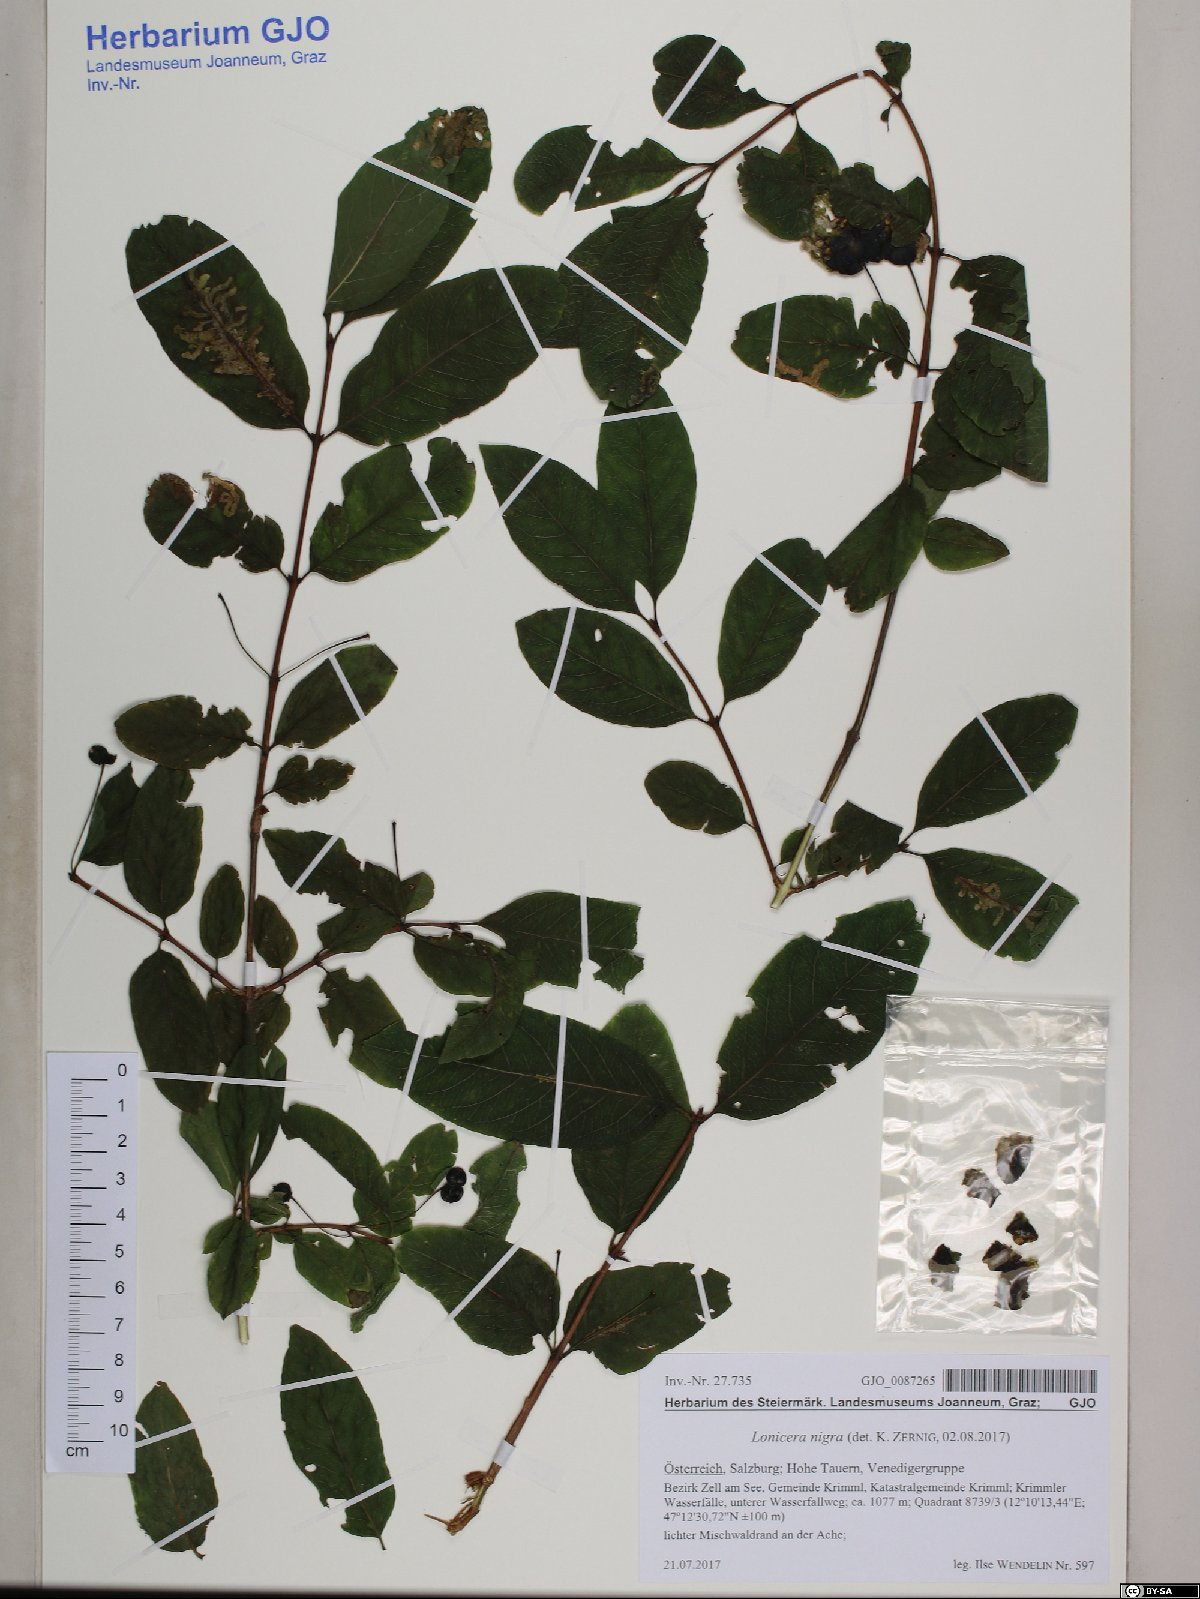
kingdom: Plantae
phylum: Tracheophyta
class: Magnoliopsida
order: Dipsacales
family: Caprifoliaceae
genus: Lonicera
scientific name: Lonicera nigra
